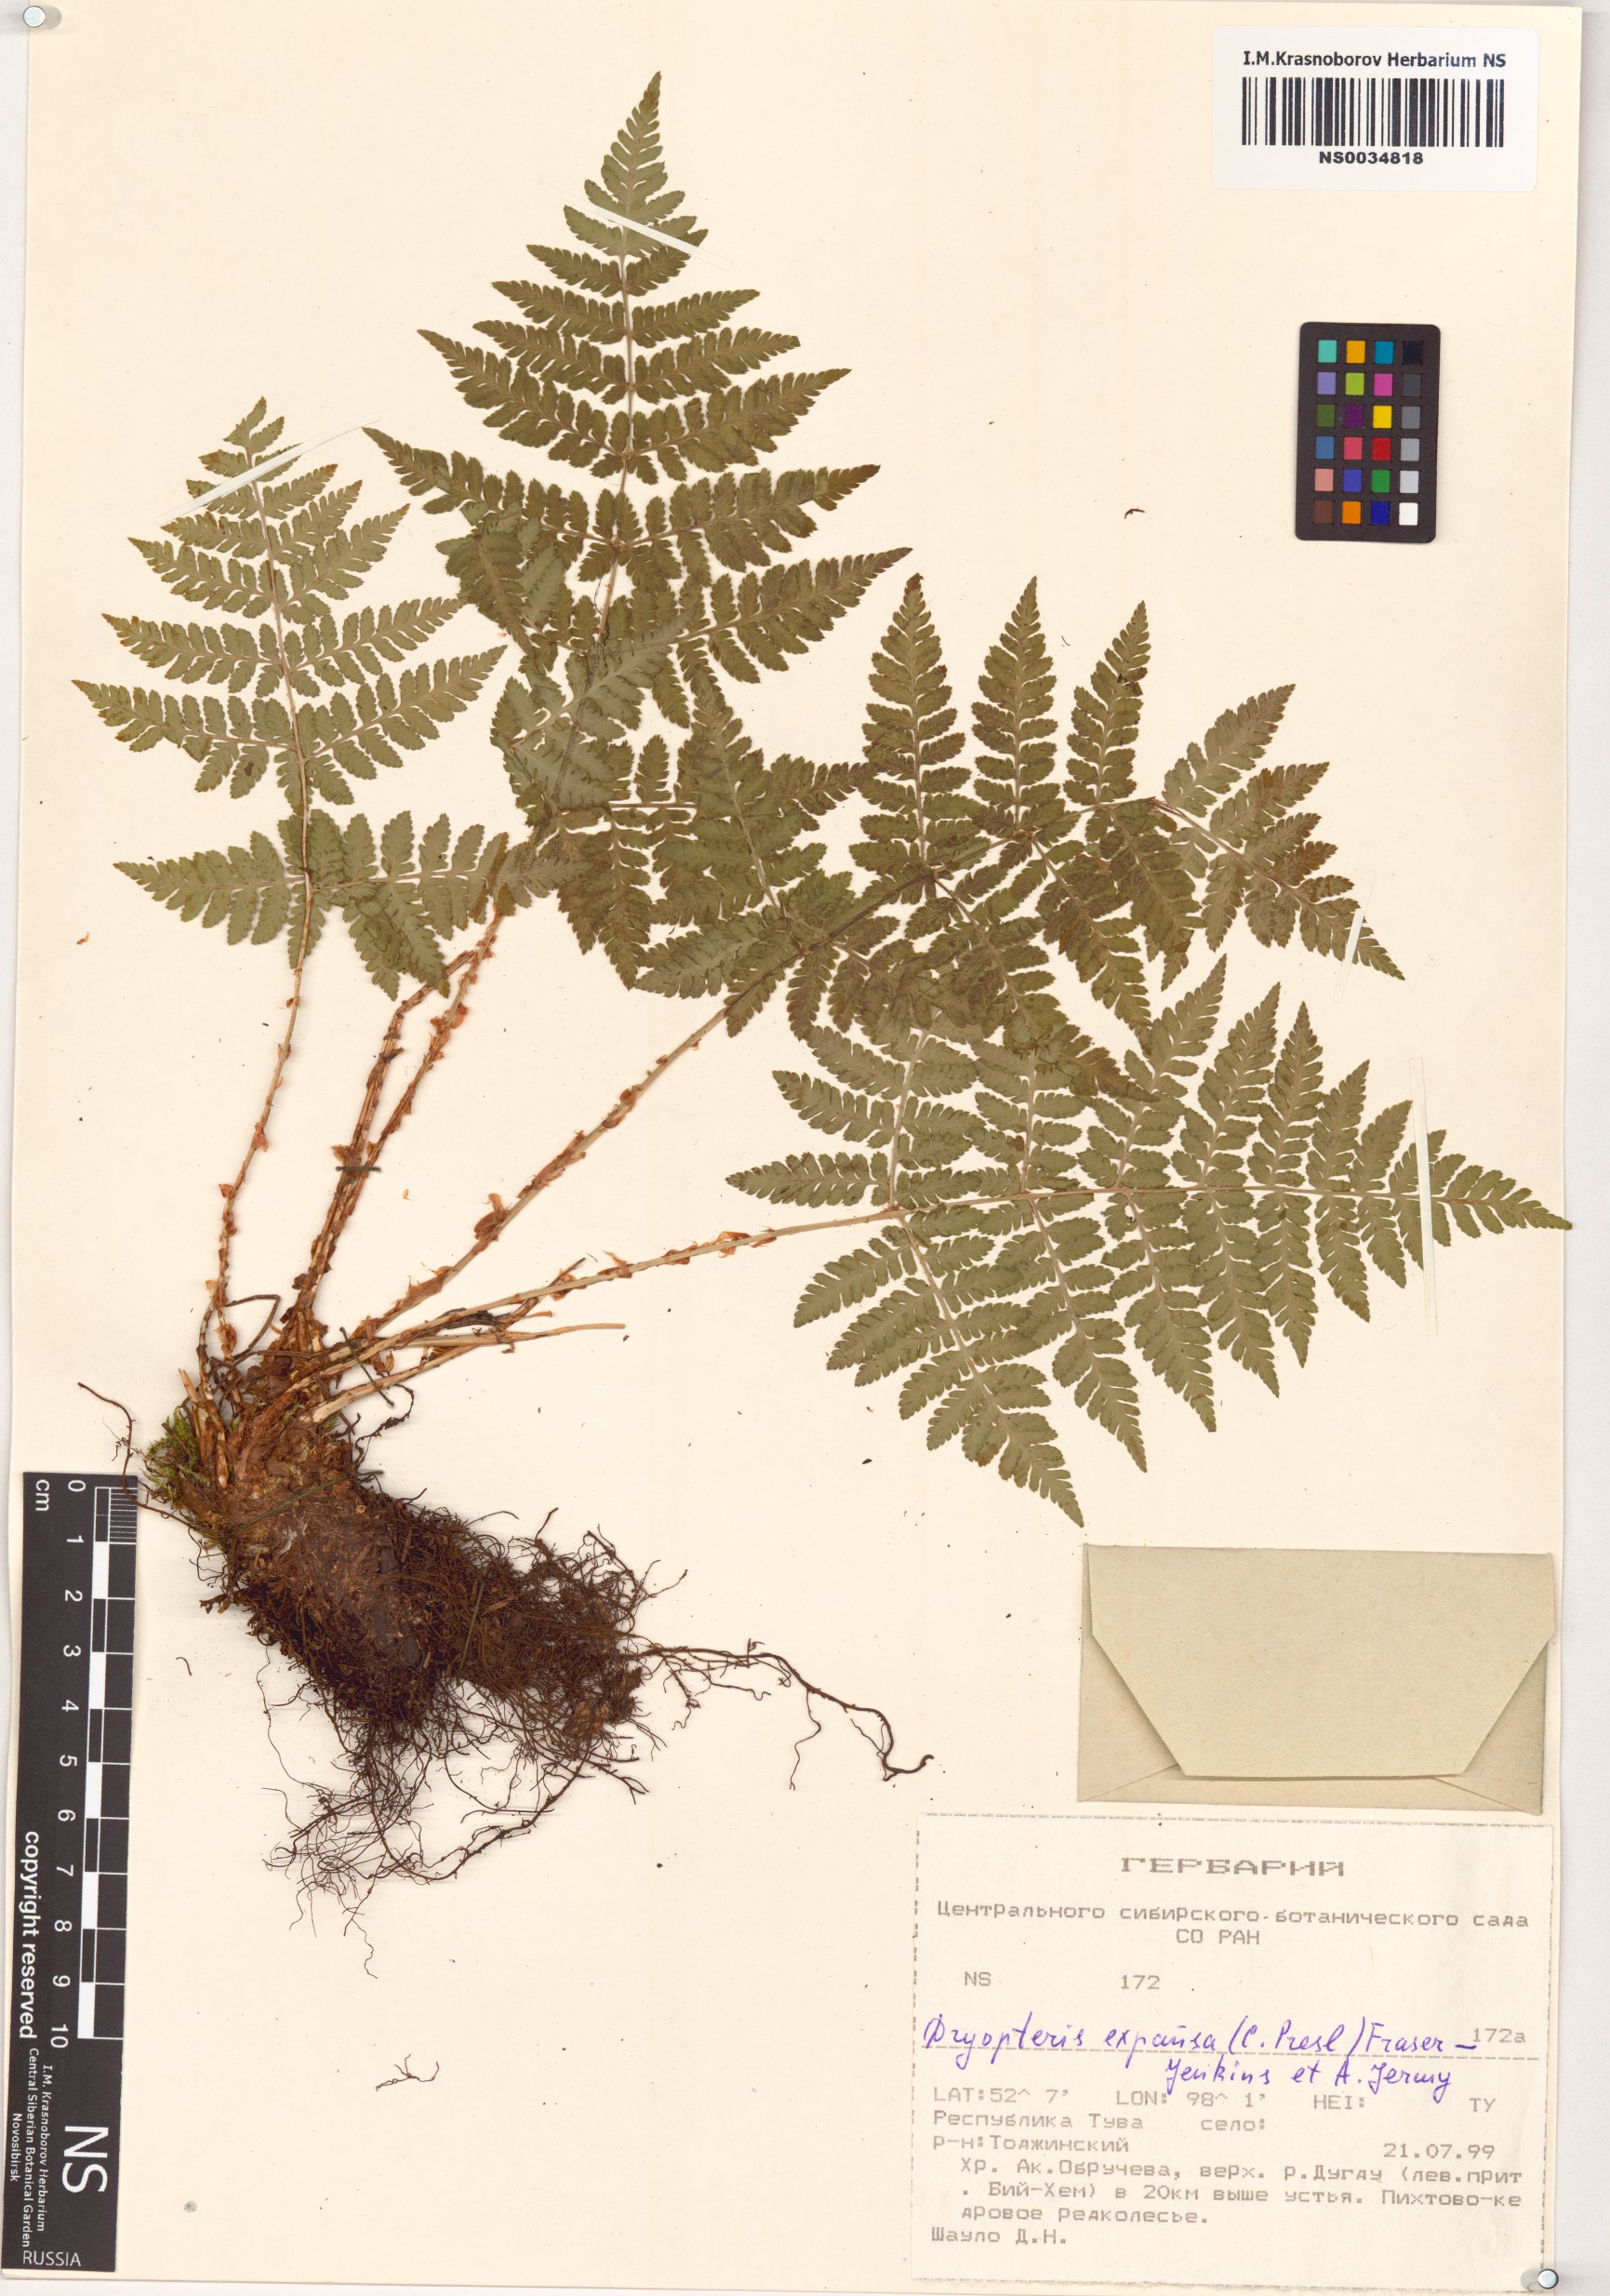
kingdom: Plantae
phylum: Tracheophyta
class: Polypodiopsida
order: Polypodiales
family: Dryopteridaceae
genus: Dryopteris
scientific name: Dryopteris expansa
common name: Northern buckler fern
